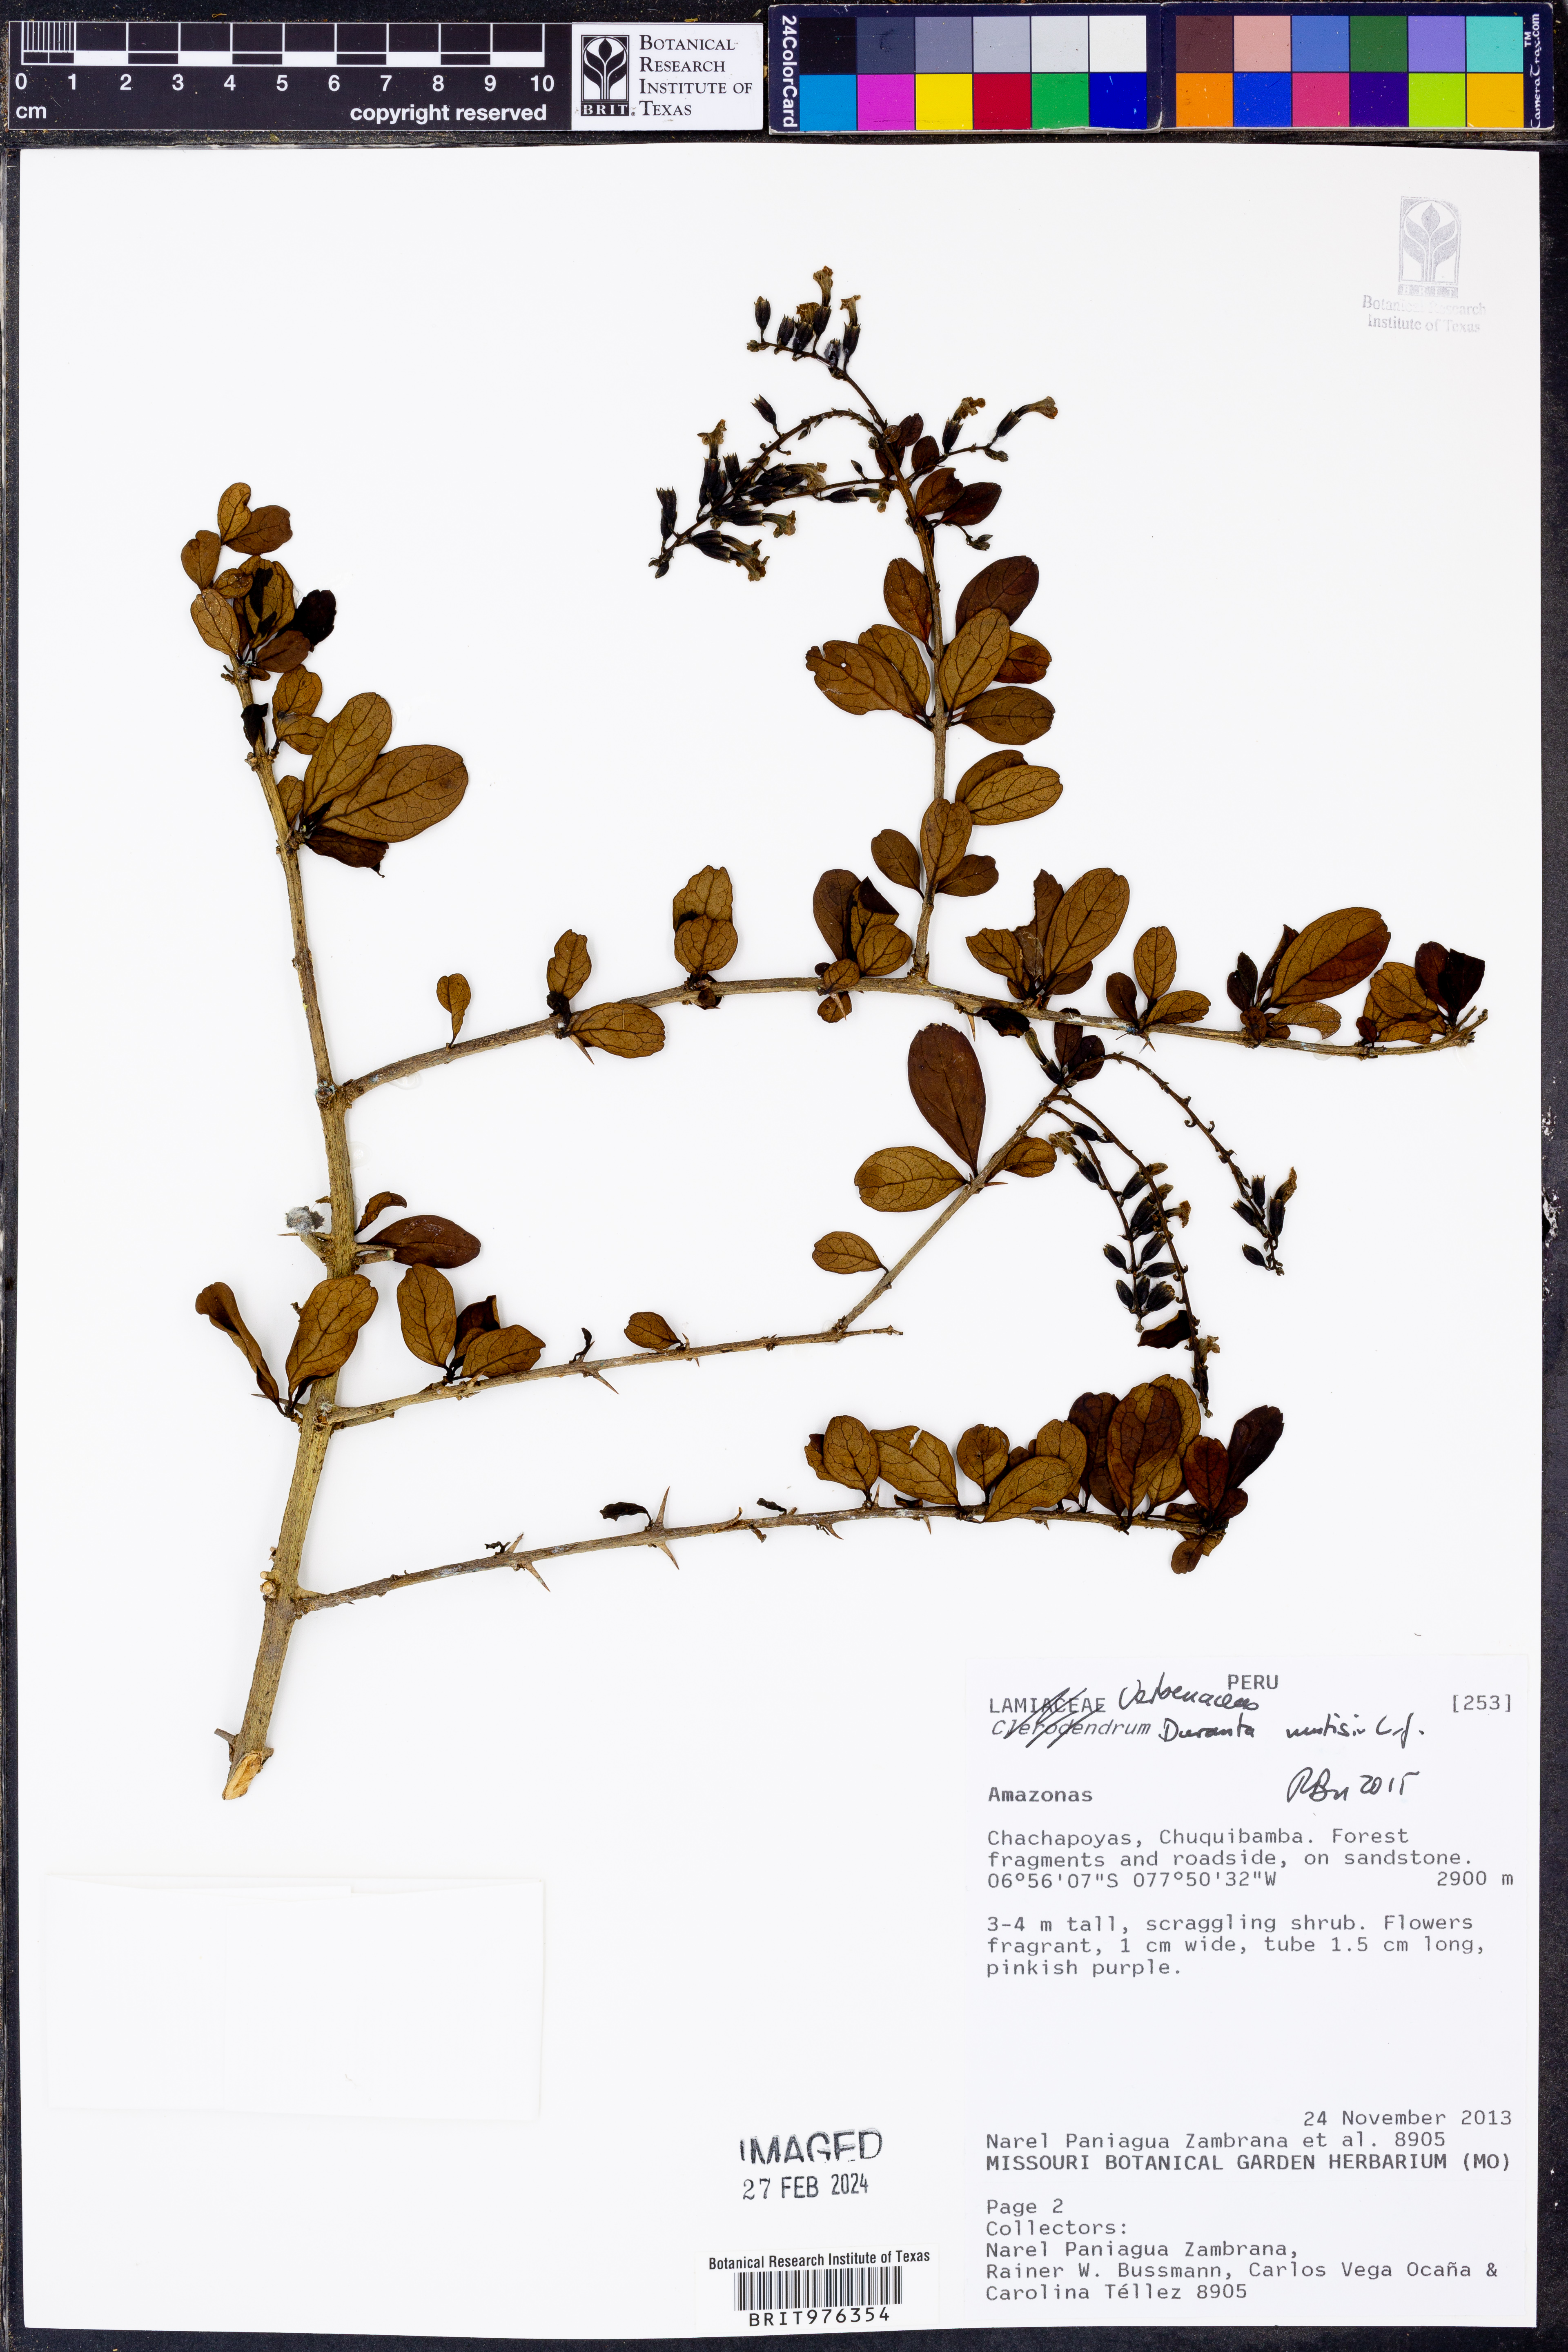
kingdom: Plantae
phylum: Tracheophyta
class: Magnoliopsida
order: Lamiales
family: Verbenaceae
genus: Duranta
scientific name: Duranta
